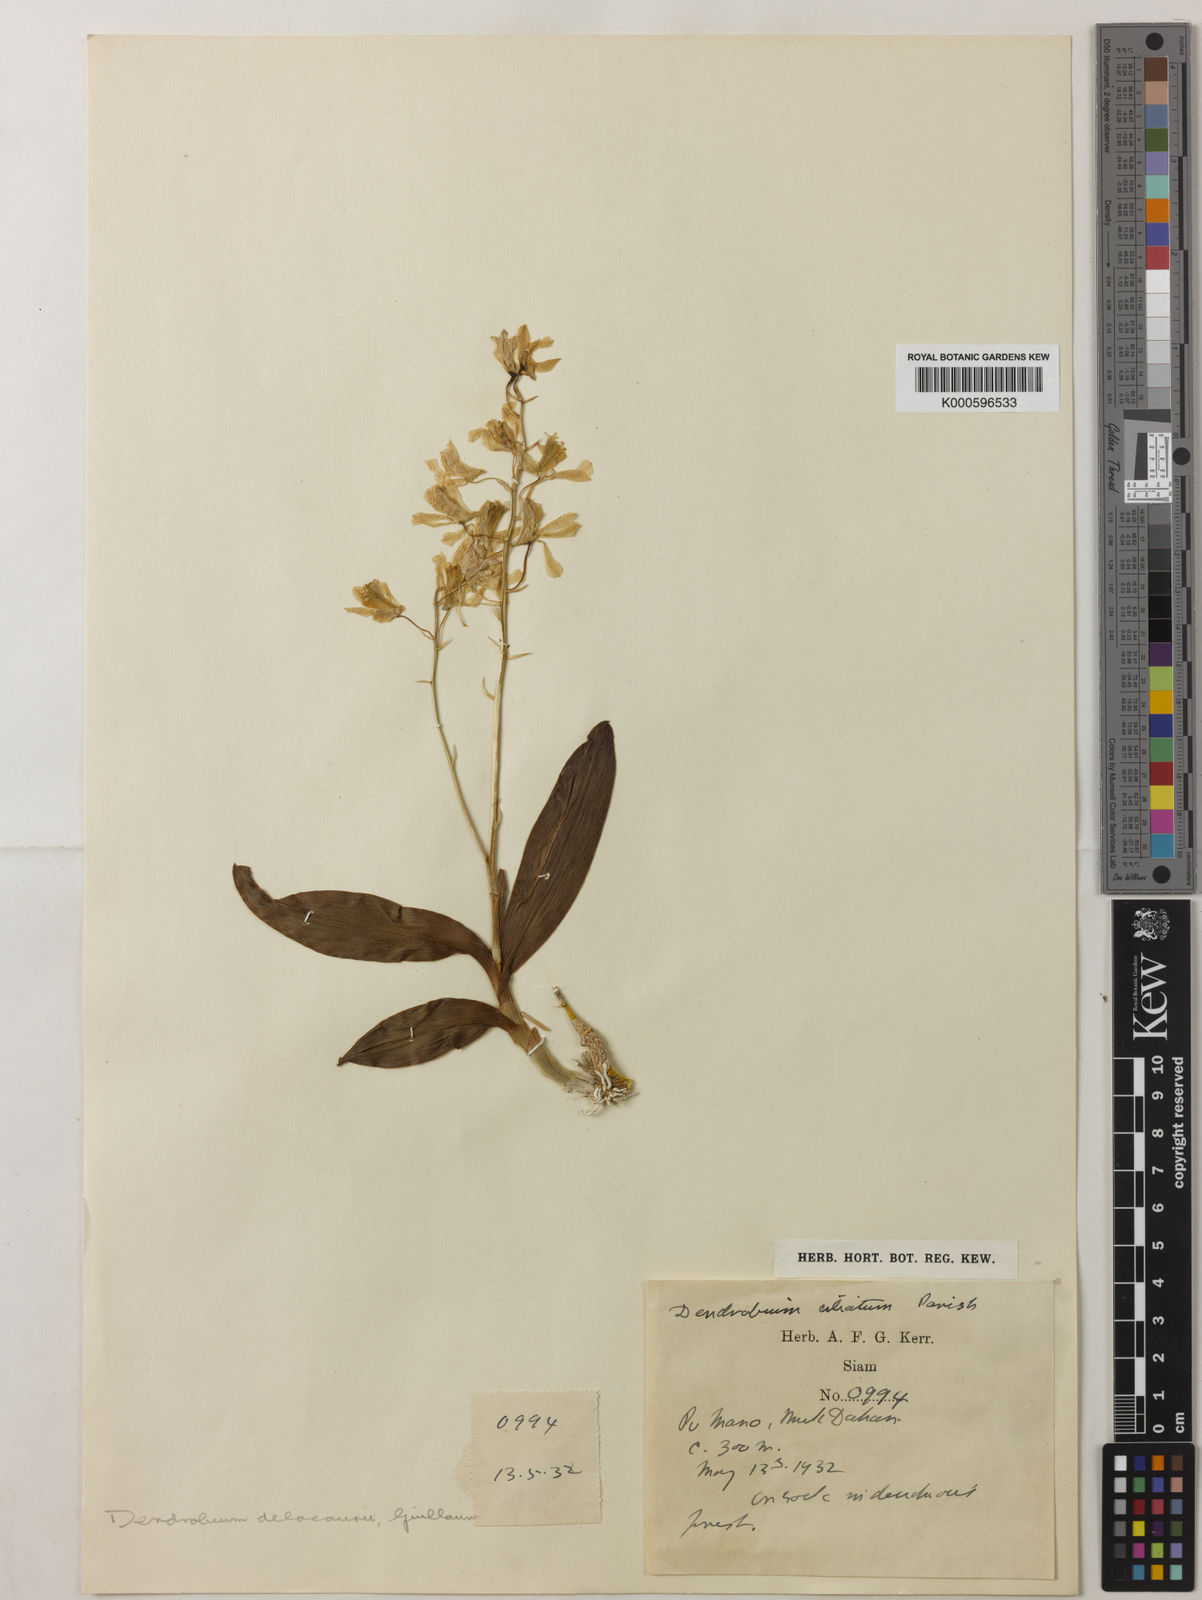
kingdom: Plantae
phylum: Tracheophyta
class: Liliopsida
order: Asparagales
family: Orchidaceae
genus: Dendrobium
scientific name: Dendrobium delacourii
